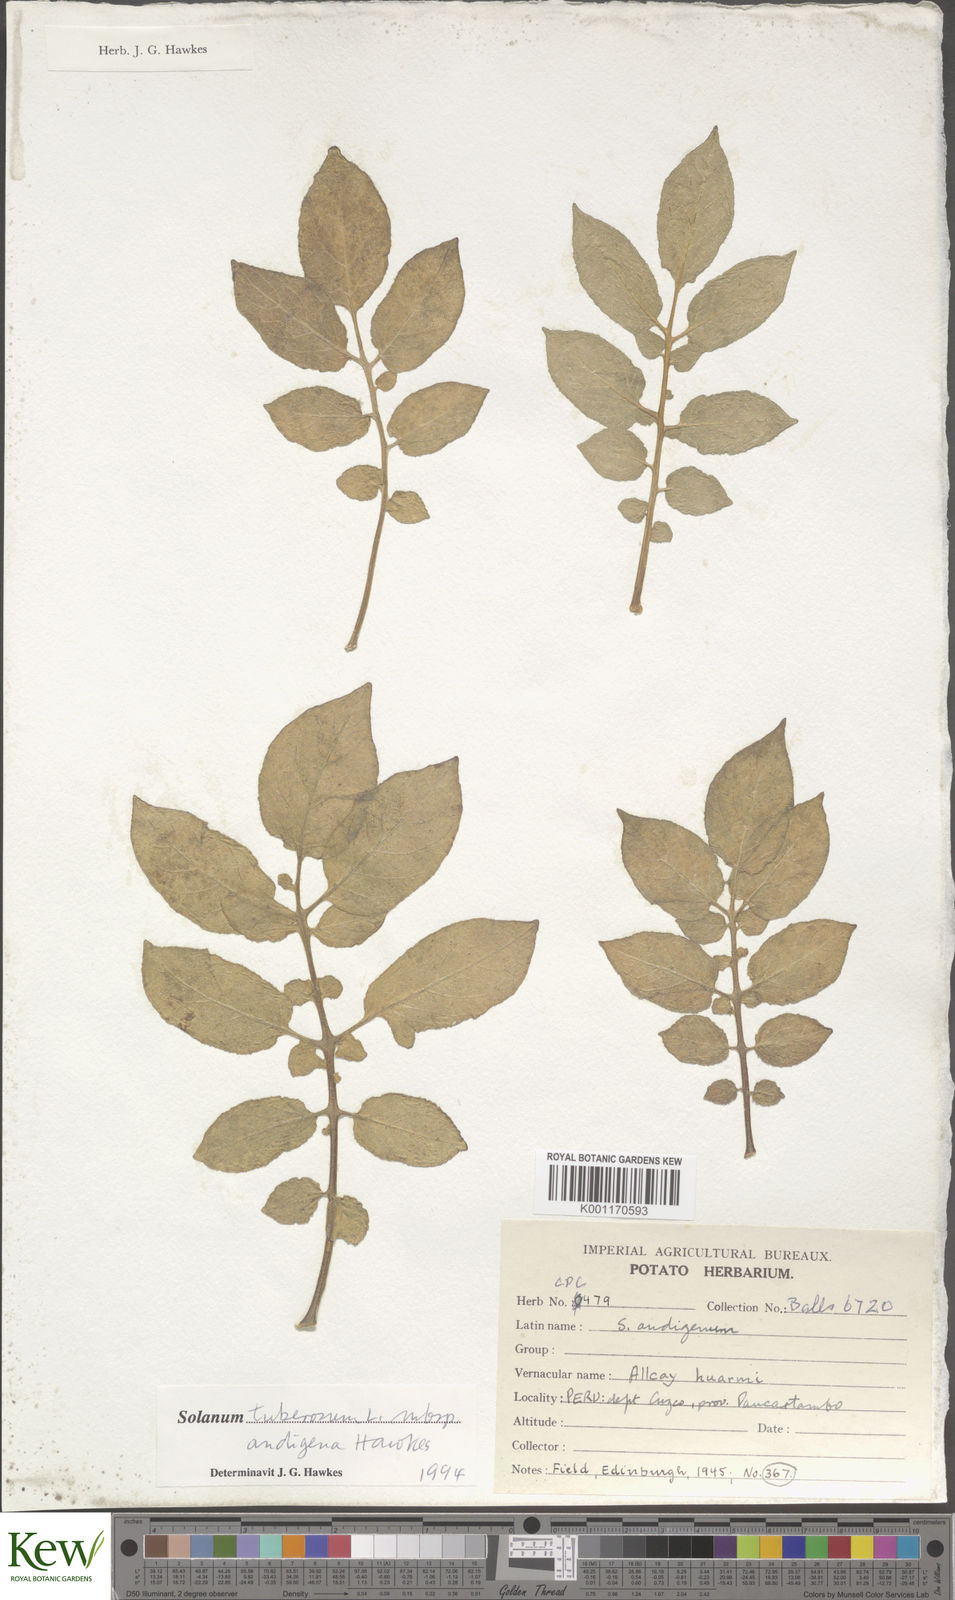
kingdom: Plantae
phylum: Tracheophyta
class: Magnoliopsida
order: Solanales
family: Solanaceae
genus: Solanum
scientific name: Solanum tuberosum
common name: Potato
